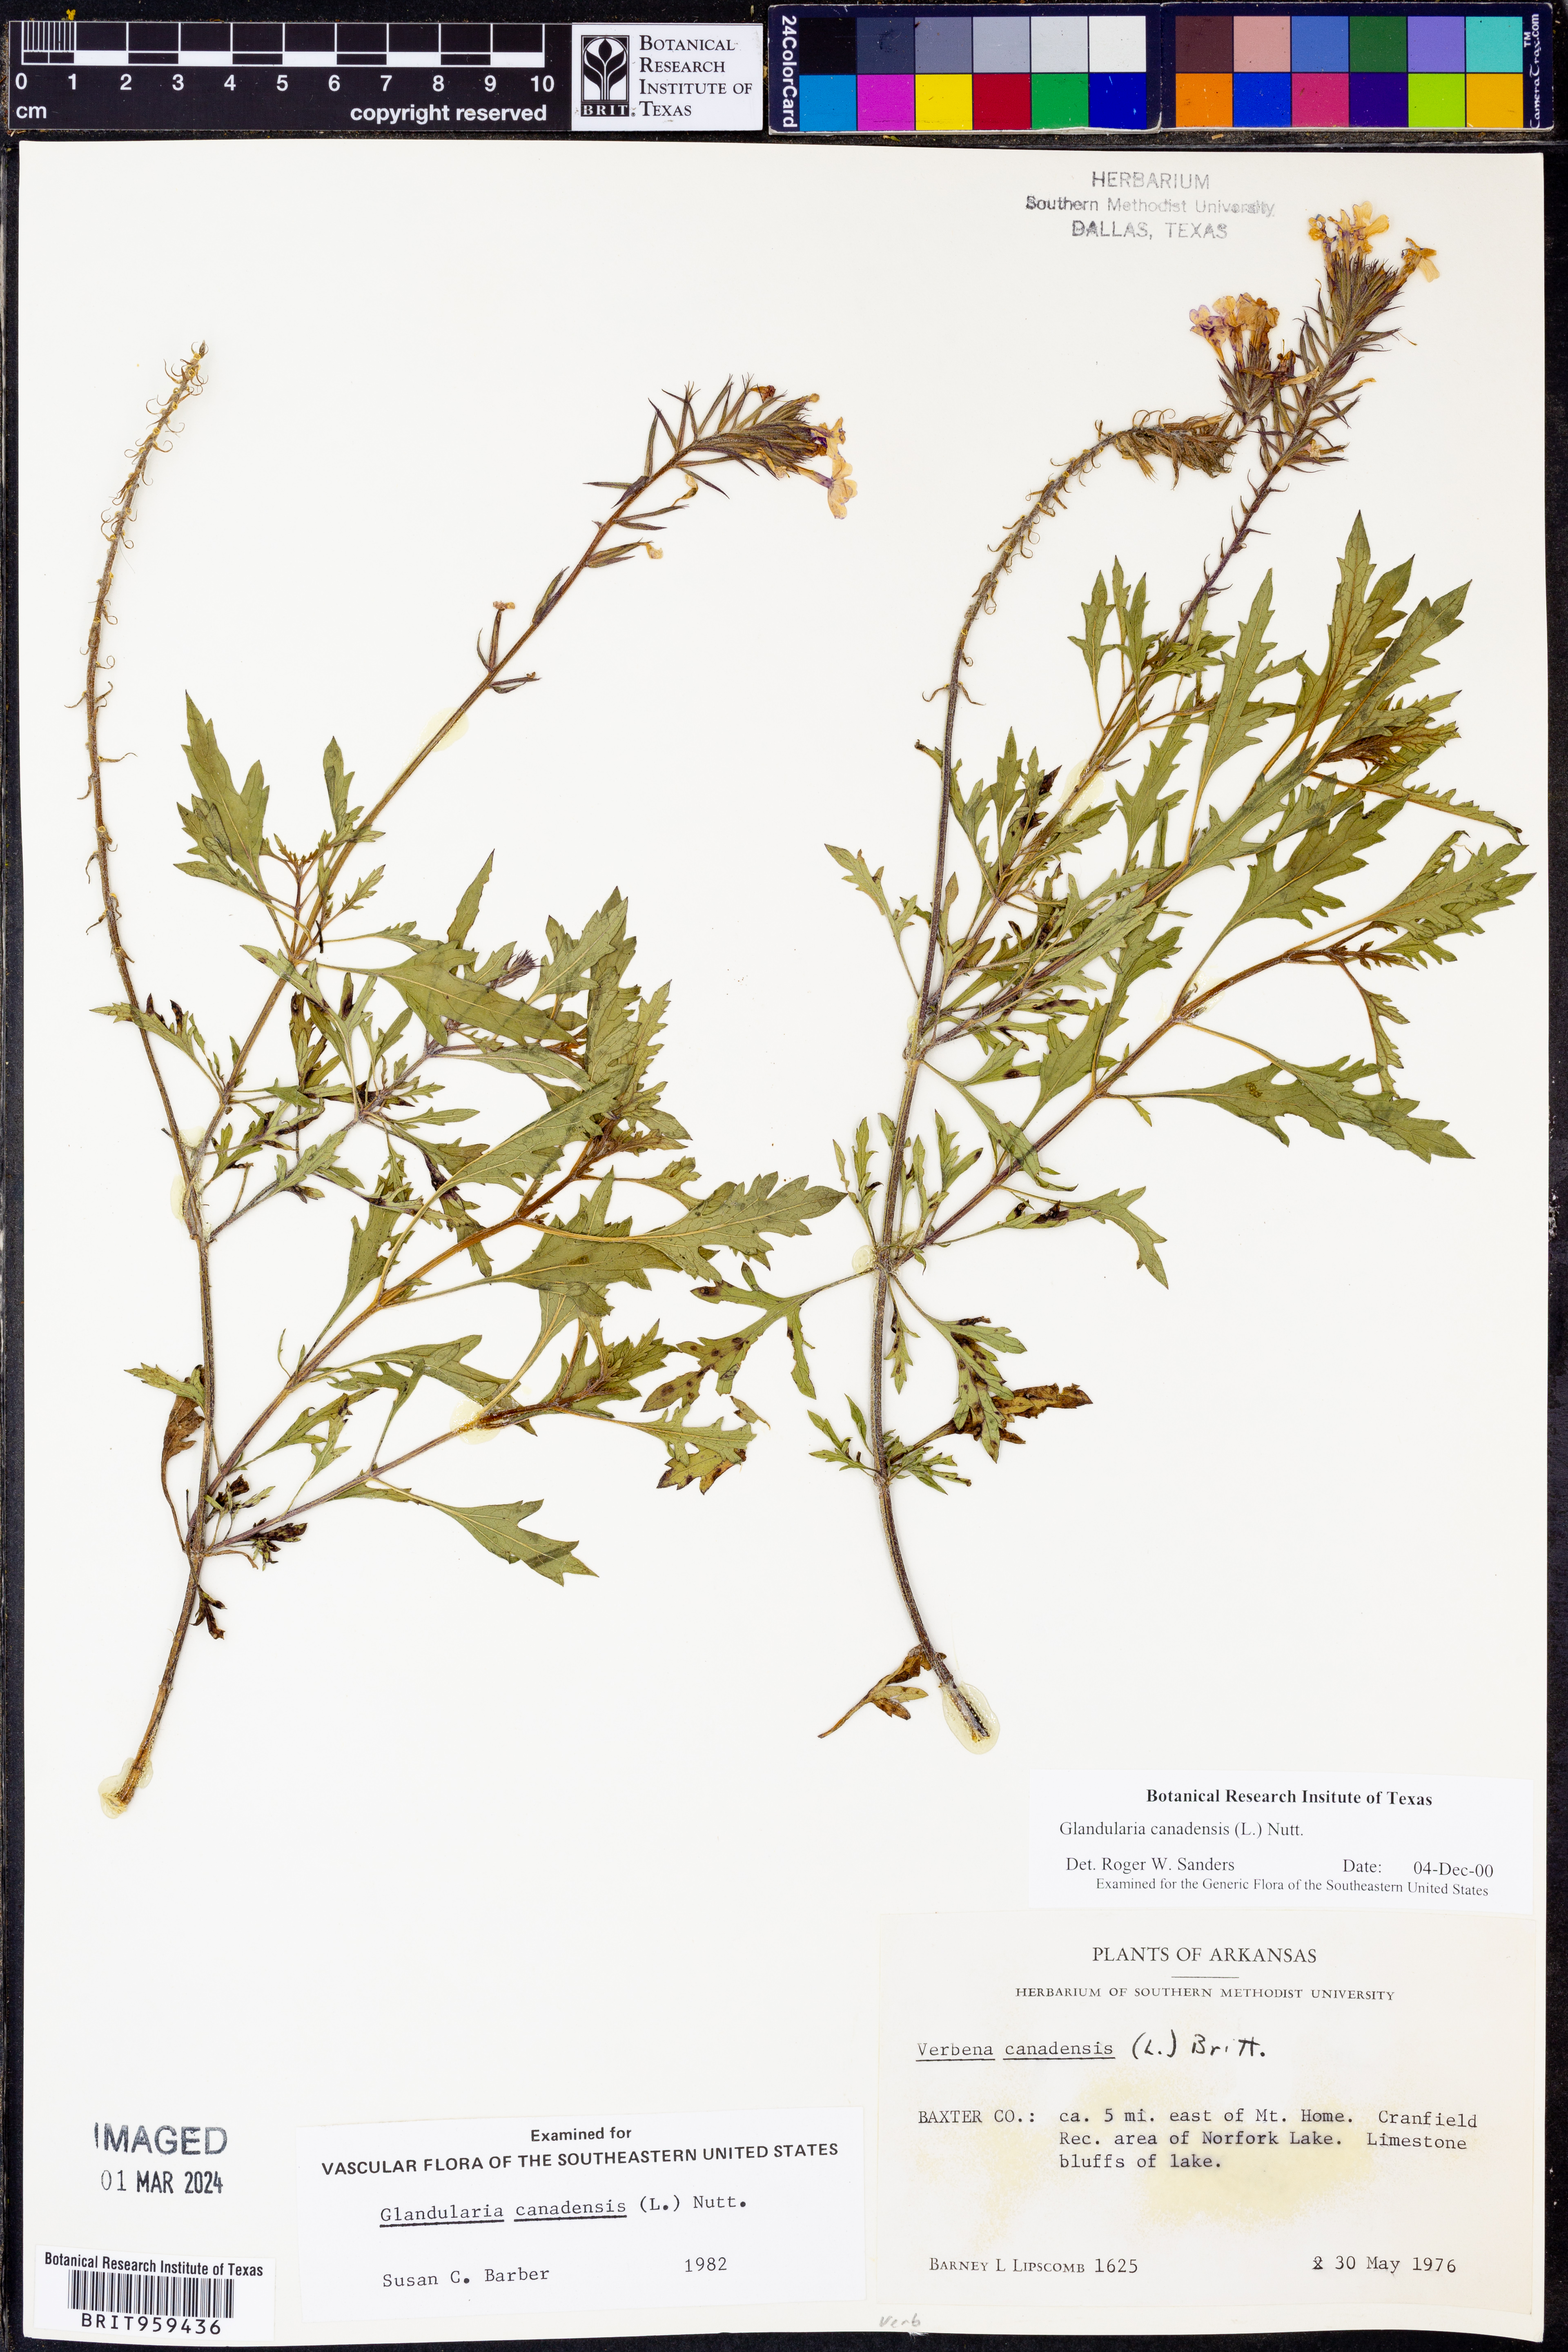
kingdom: Plantae
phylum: Tracheophyta
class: Magnoliopsida
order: Lamiales
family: Verbenaceae
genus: Verbena
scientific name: Verbena canadensis
